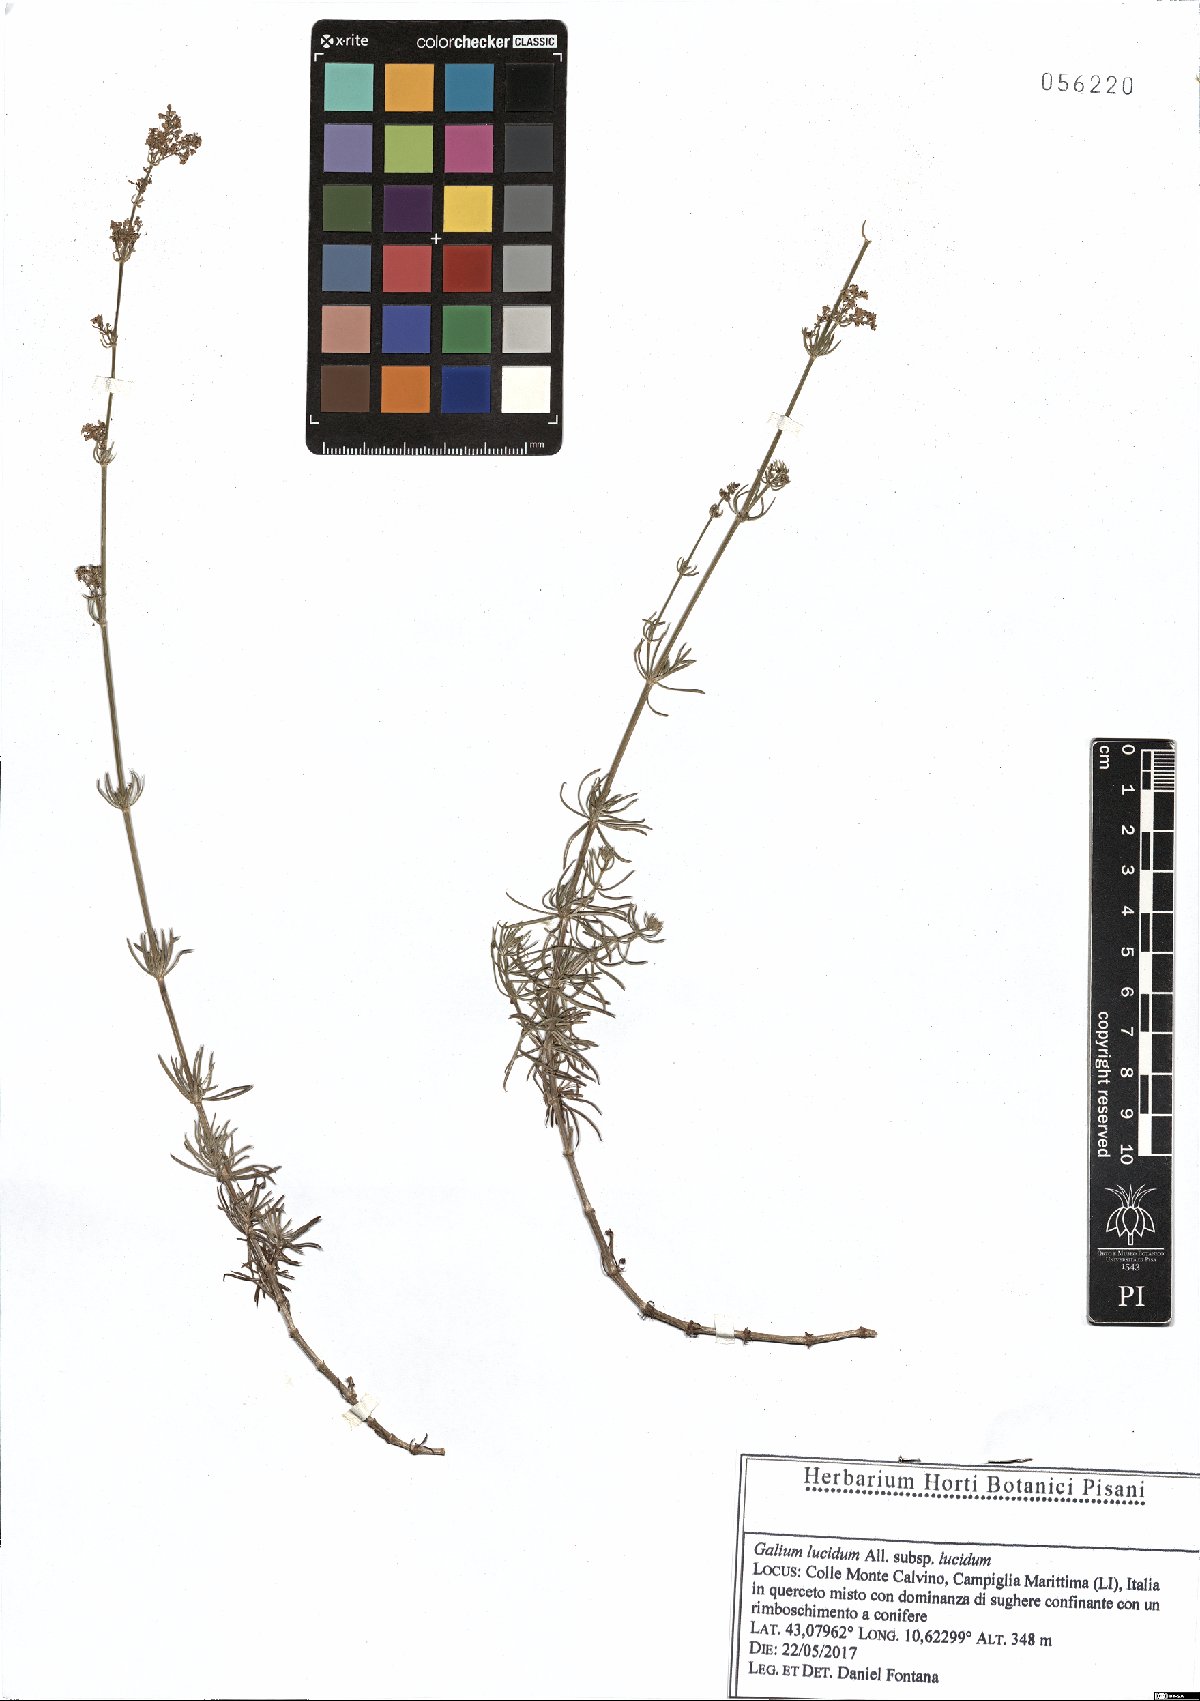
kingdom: Plantae
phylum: Tracheophyta
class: Magnoliopsida
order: Gentianales
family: Rubiaceae
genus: Galium
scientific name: Galium lucidum
